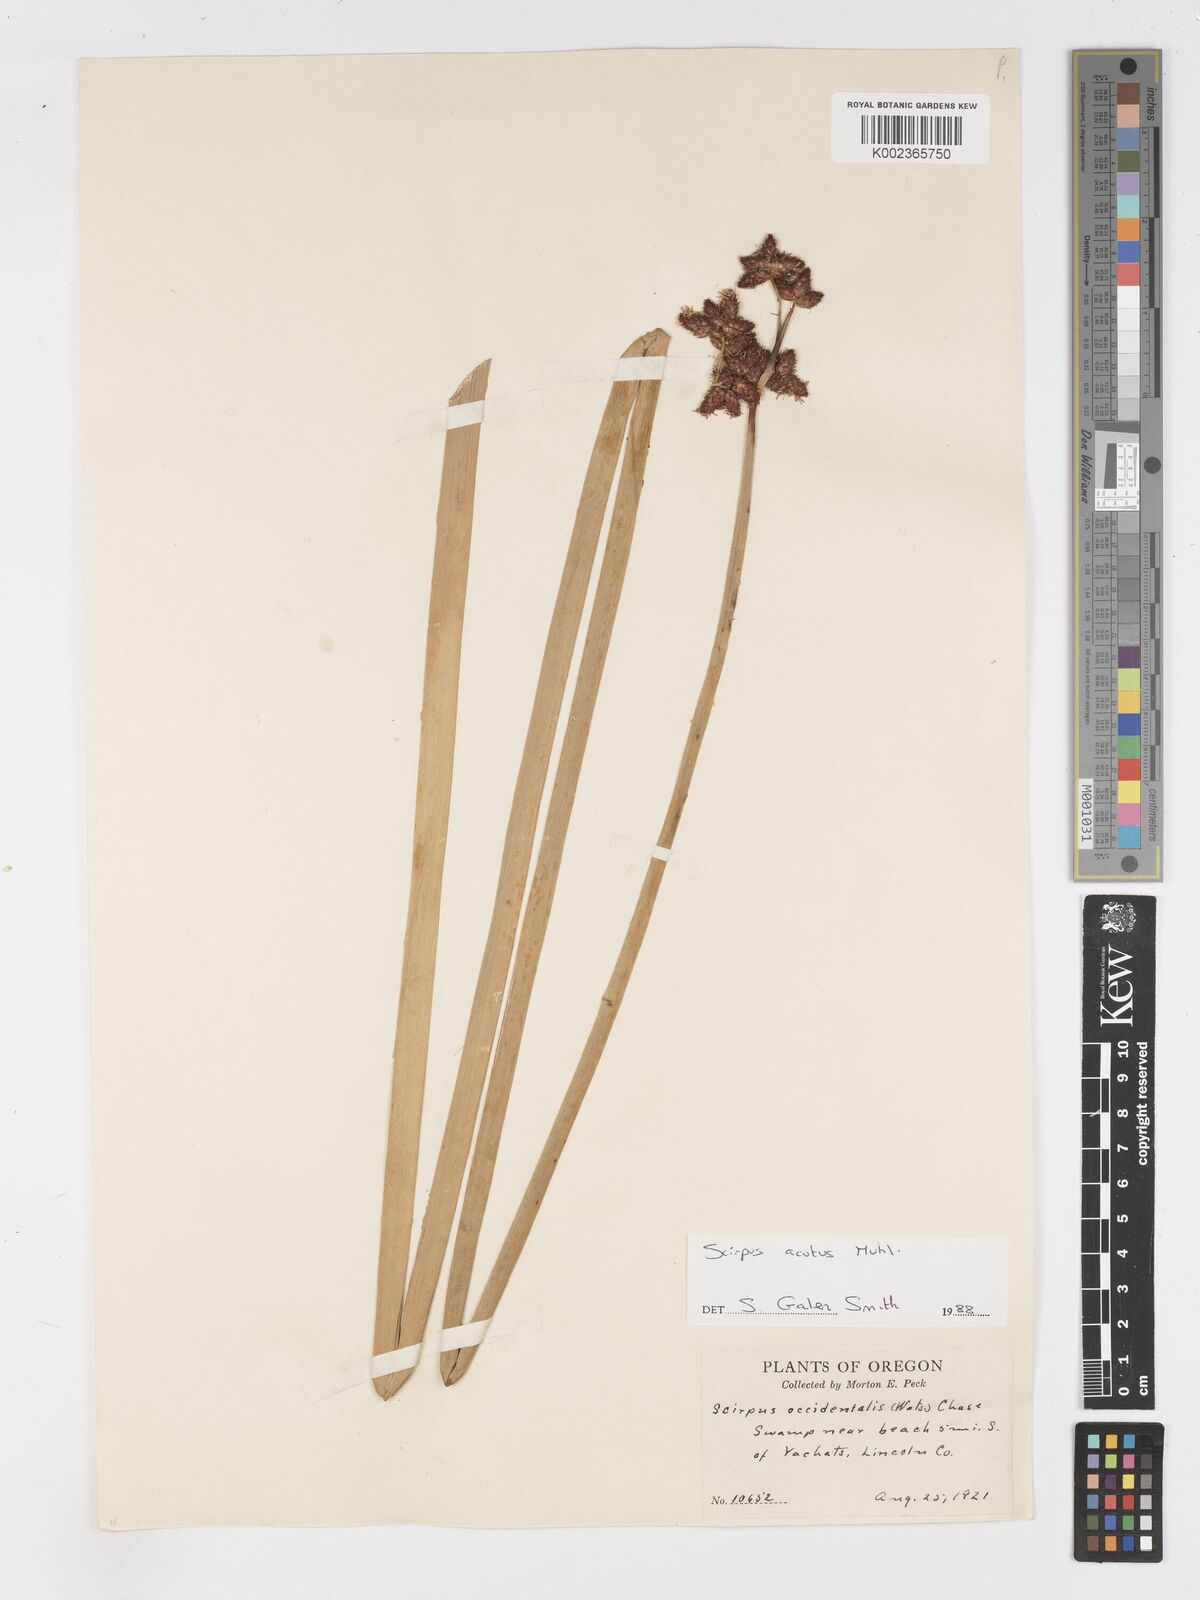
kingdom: Plantae
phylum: Tracheophyta
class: Liliopsida
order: Poales
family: Cyperaceae
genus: Schoenoplectus
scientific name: Schoenoplectus
